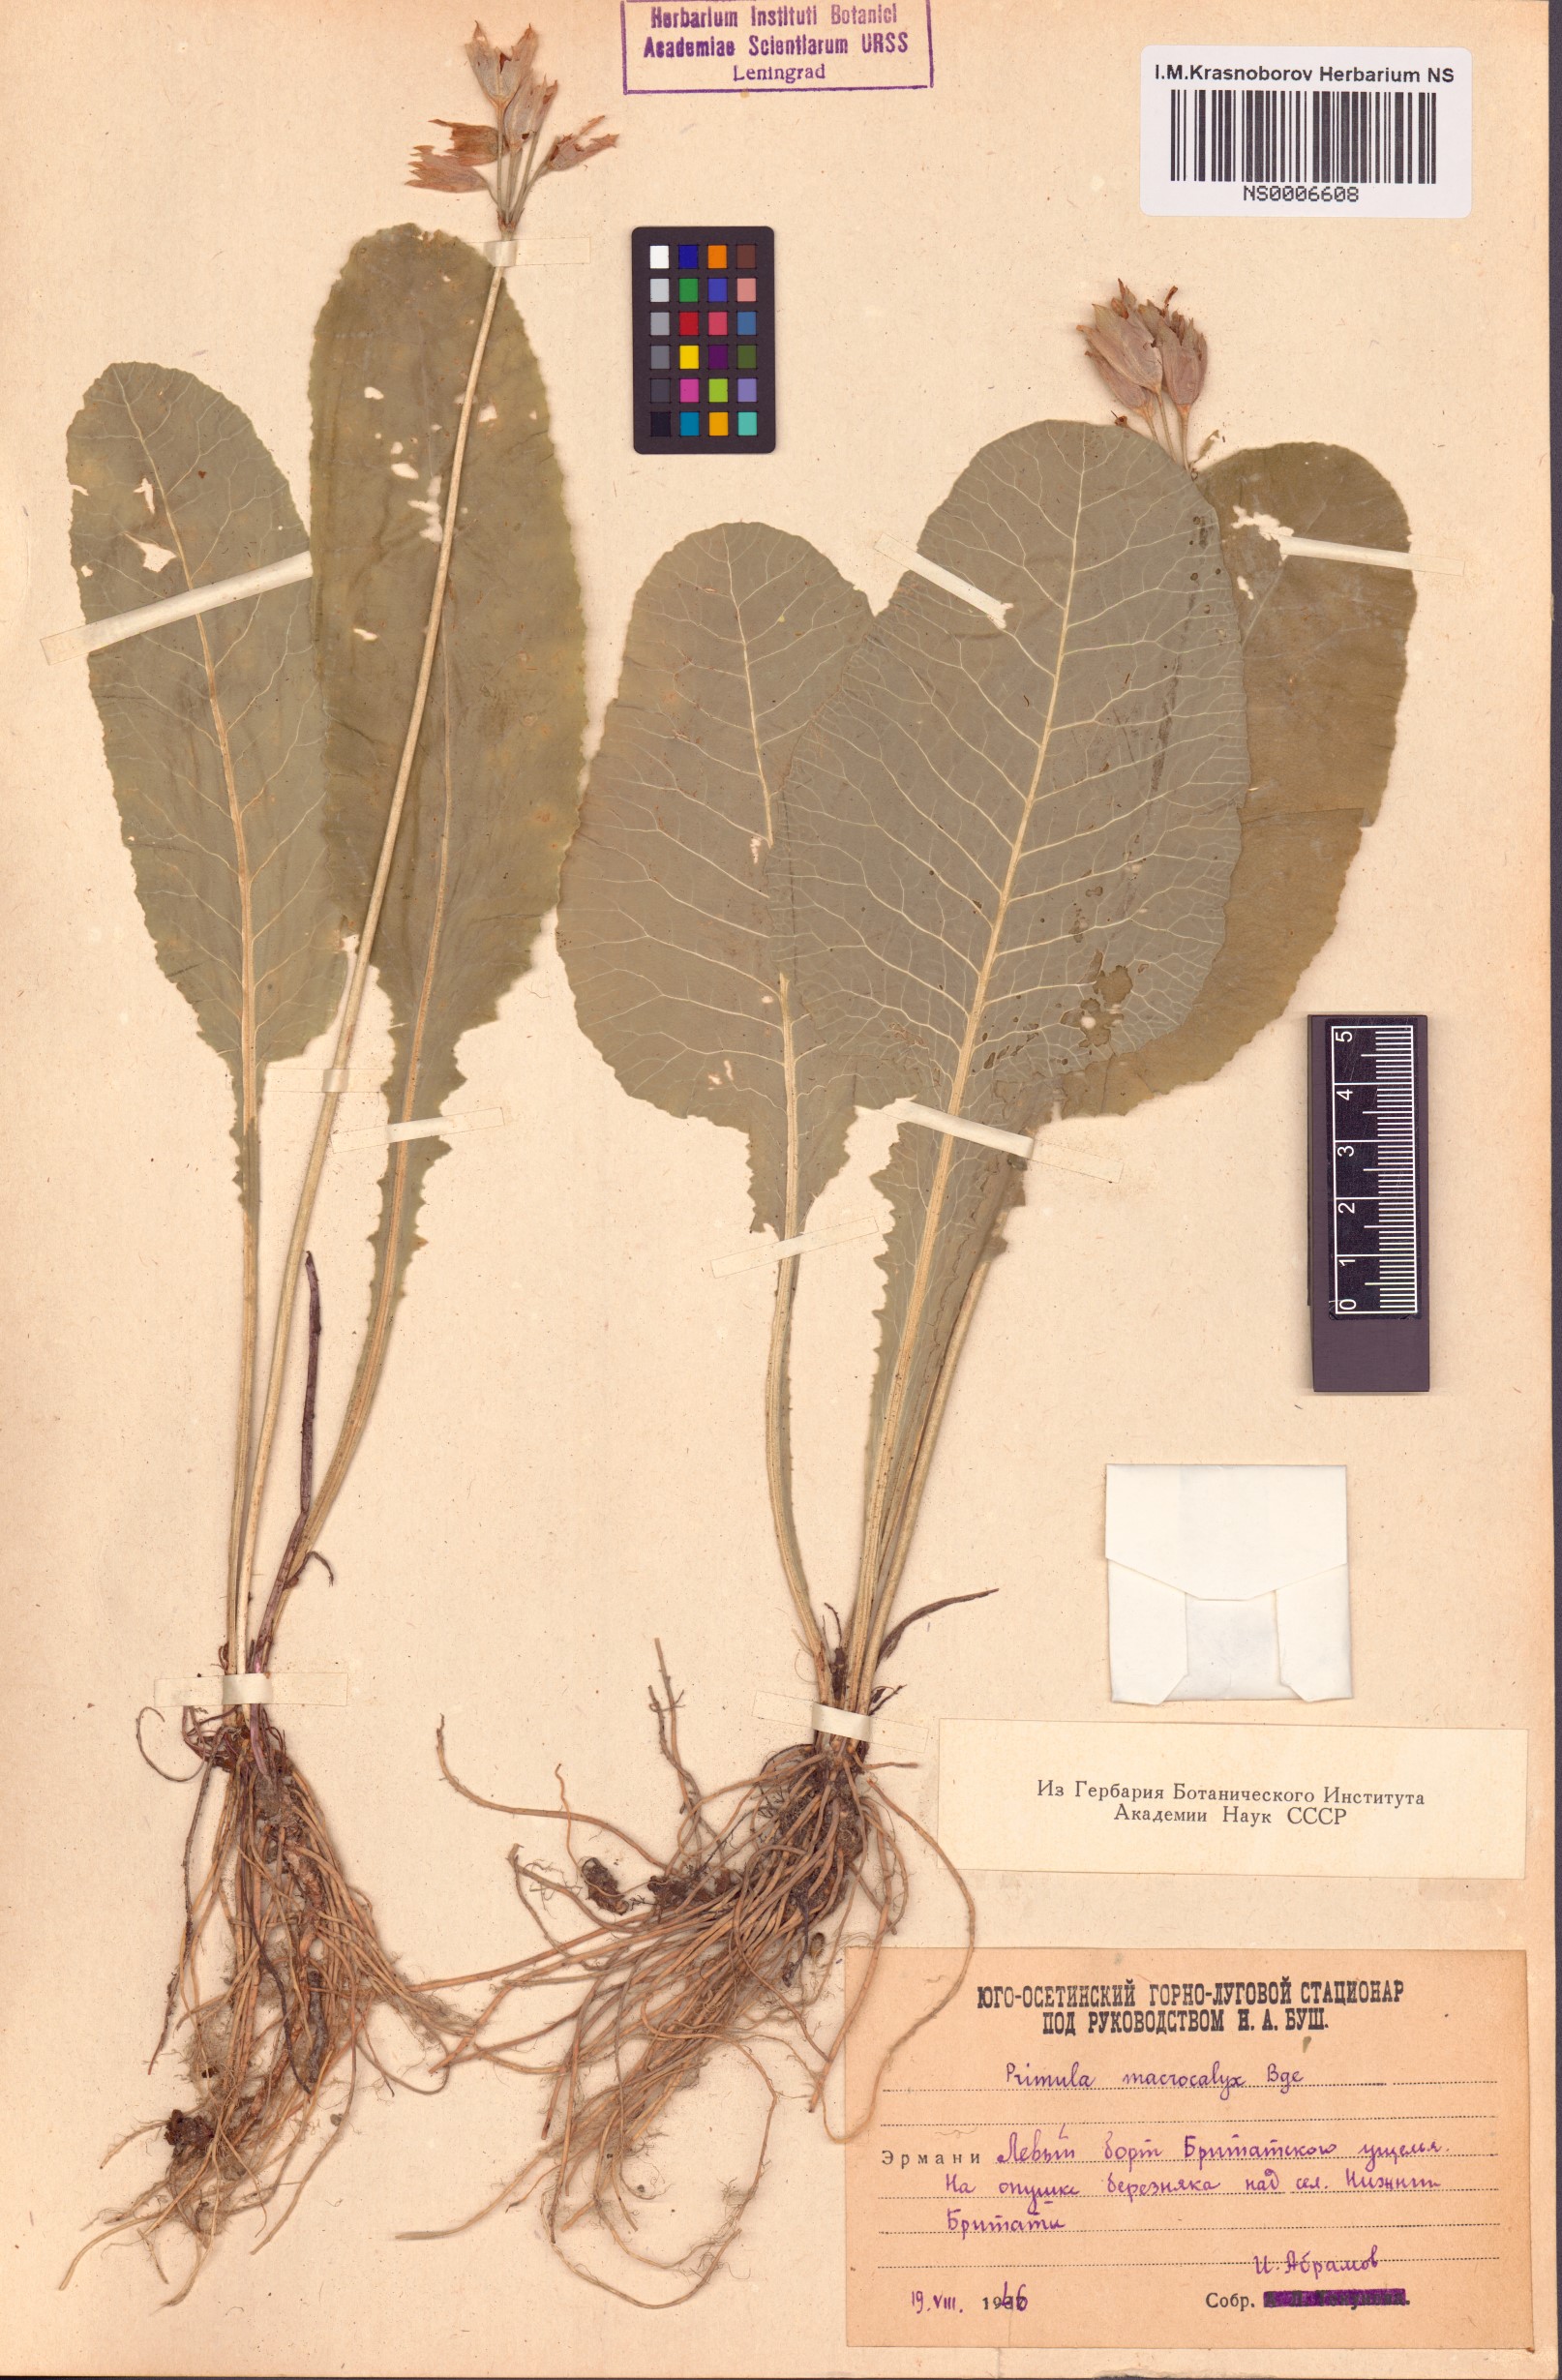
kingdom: Plantae
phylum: Tracheophyta
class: Magnoliopsida
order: Ericales
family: Primulaceae
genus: Primula
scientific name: Primula veris
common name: Cowslip
